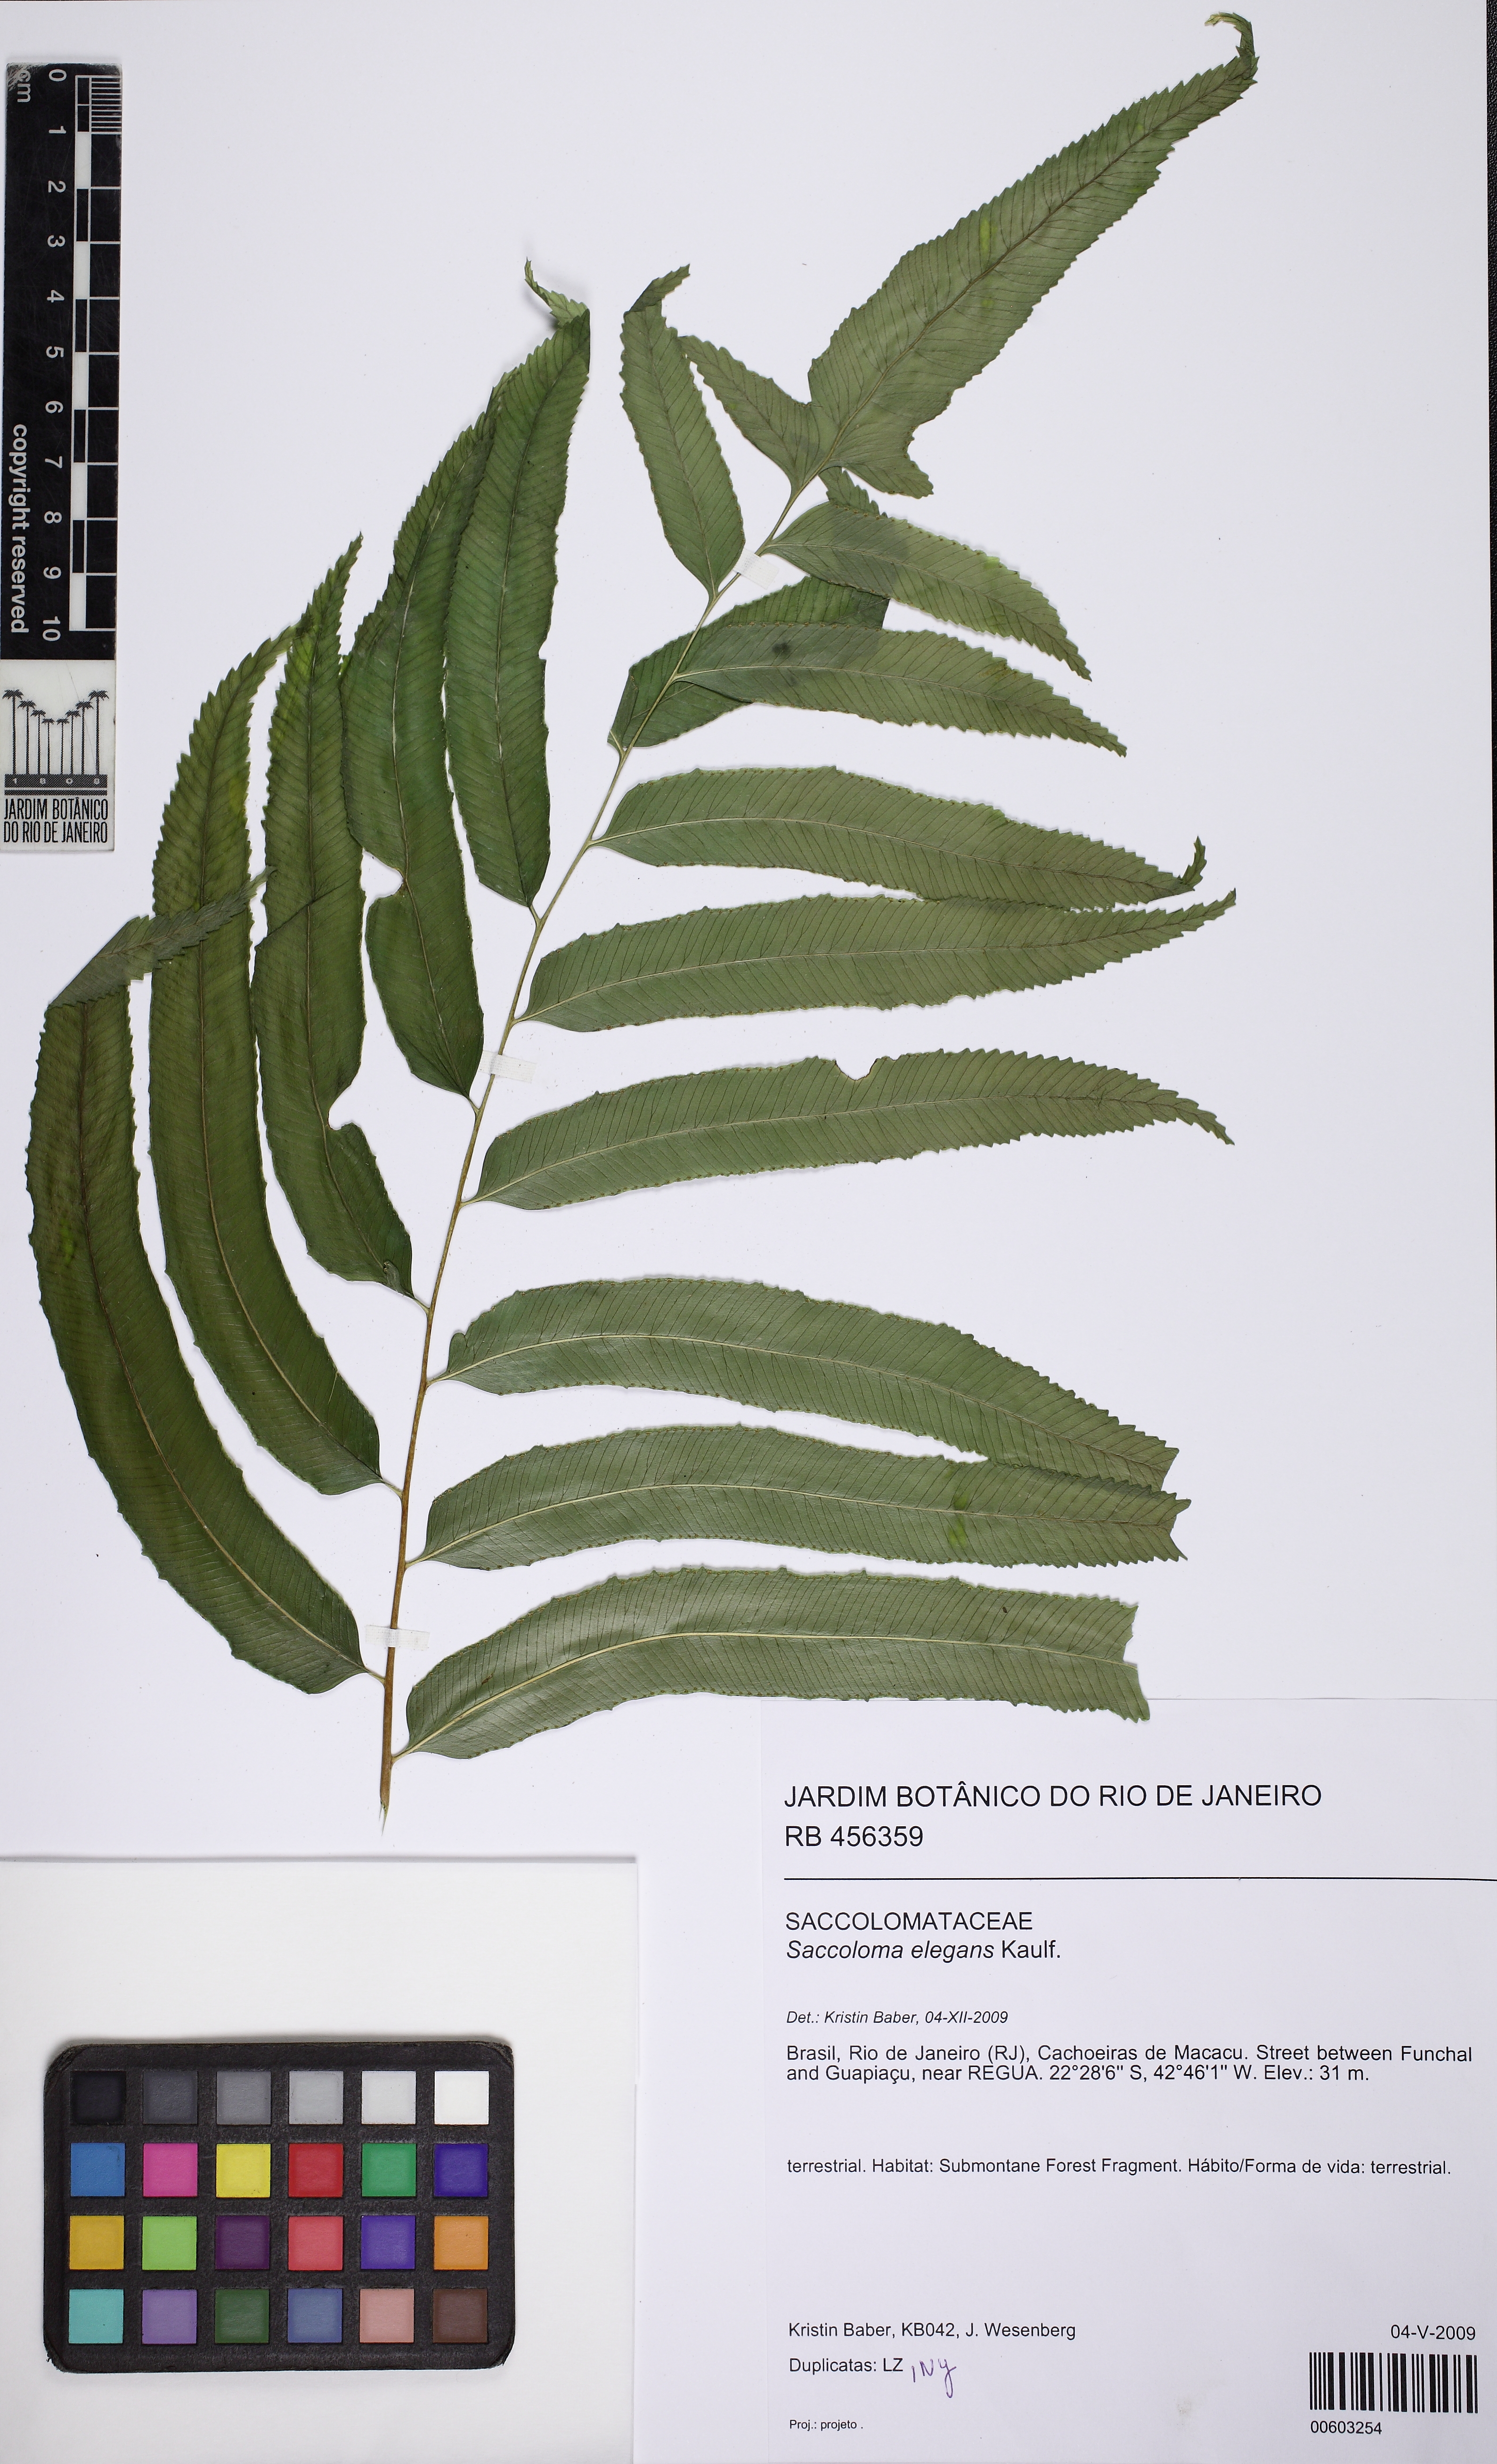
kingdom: Plantae
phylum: Tracheophyta
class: Polypodiopsida
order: Polypodiales
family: Saccolomataceae
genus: Saccoloma
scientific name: Saccoloma elegans
